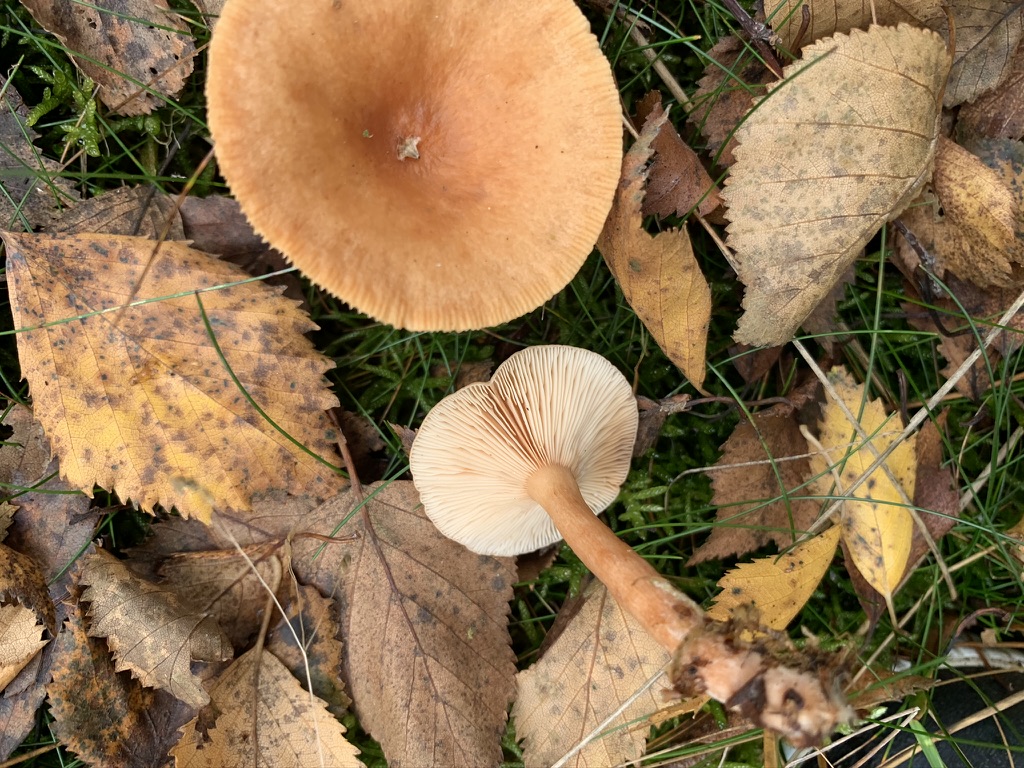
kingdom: Fungi
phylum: Basidiomycota
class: Agaricomycetes
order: Russulales
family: Russulaceae
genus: Lactarius
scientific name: Lactarius tabidus
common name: rynket mælkehat
